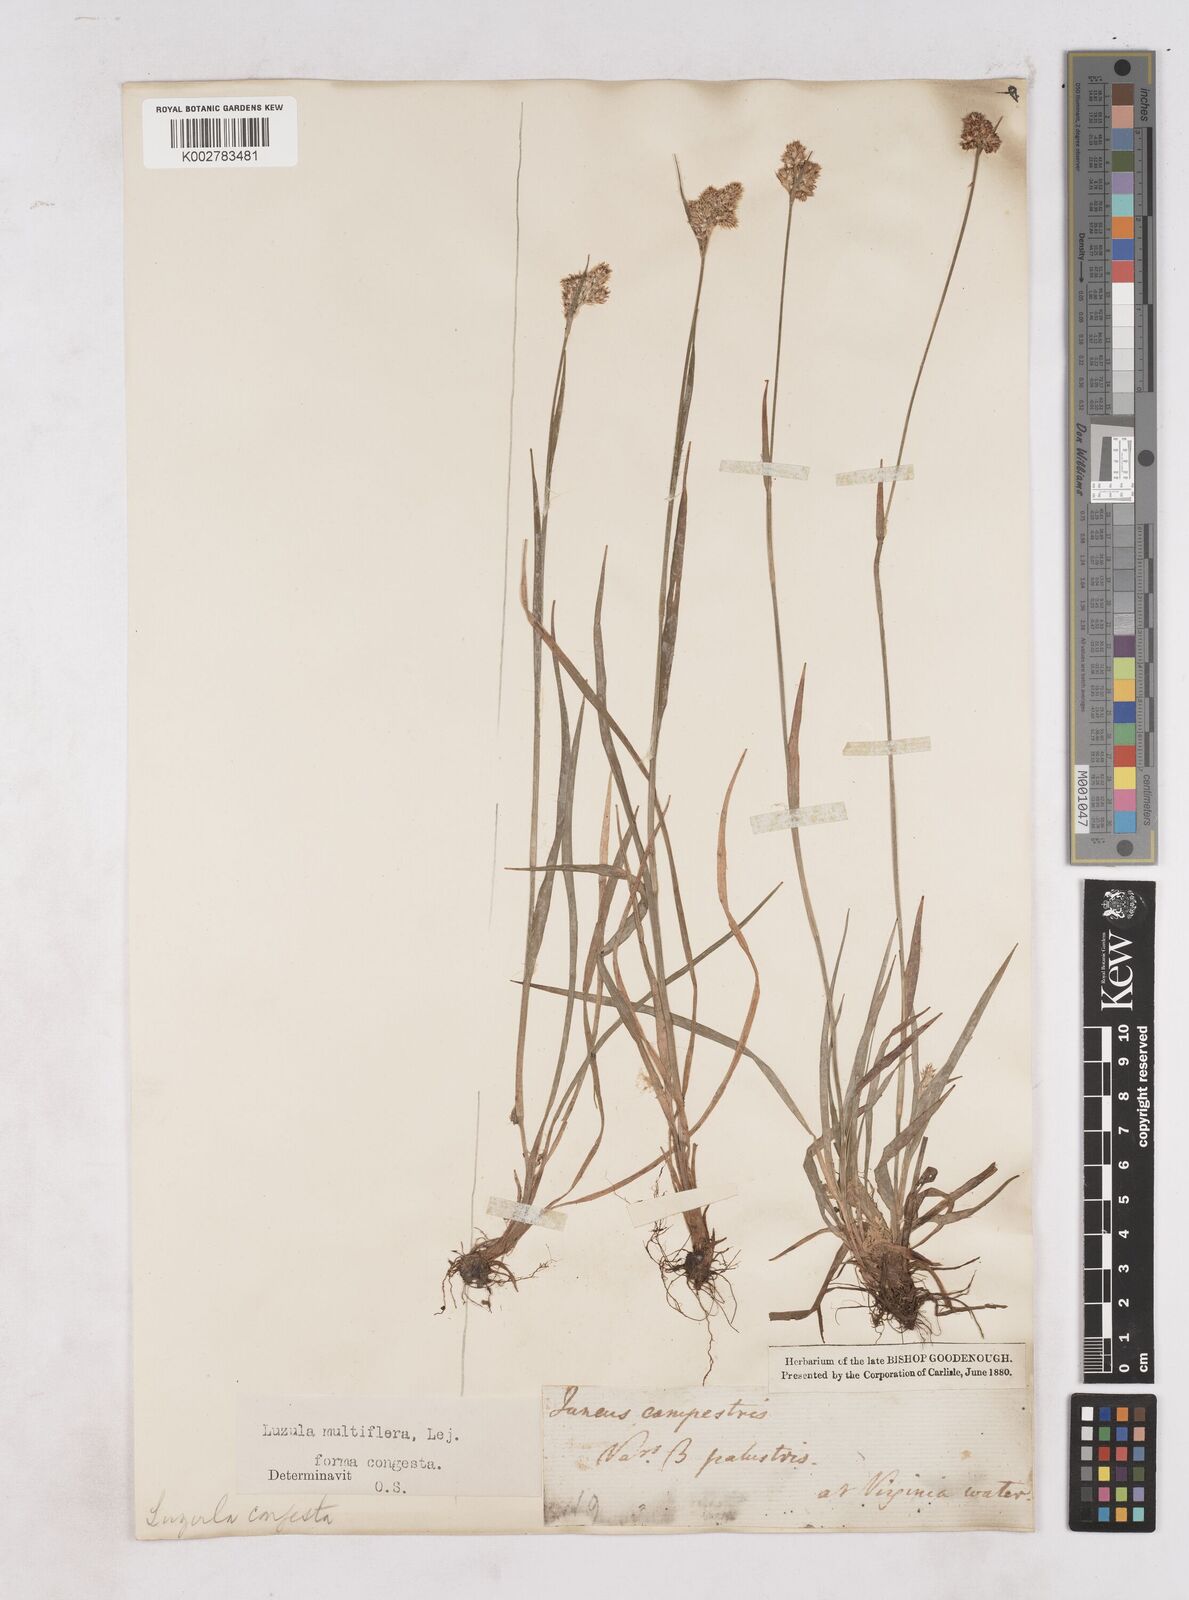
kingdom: Plantae
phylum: Tracheophyta
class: Liliopsida
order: Poales
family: Juncaceae
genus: Luzula
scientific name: Luzula campestris
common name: Field wood-rush
